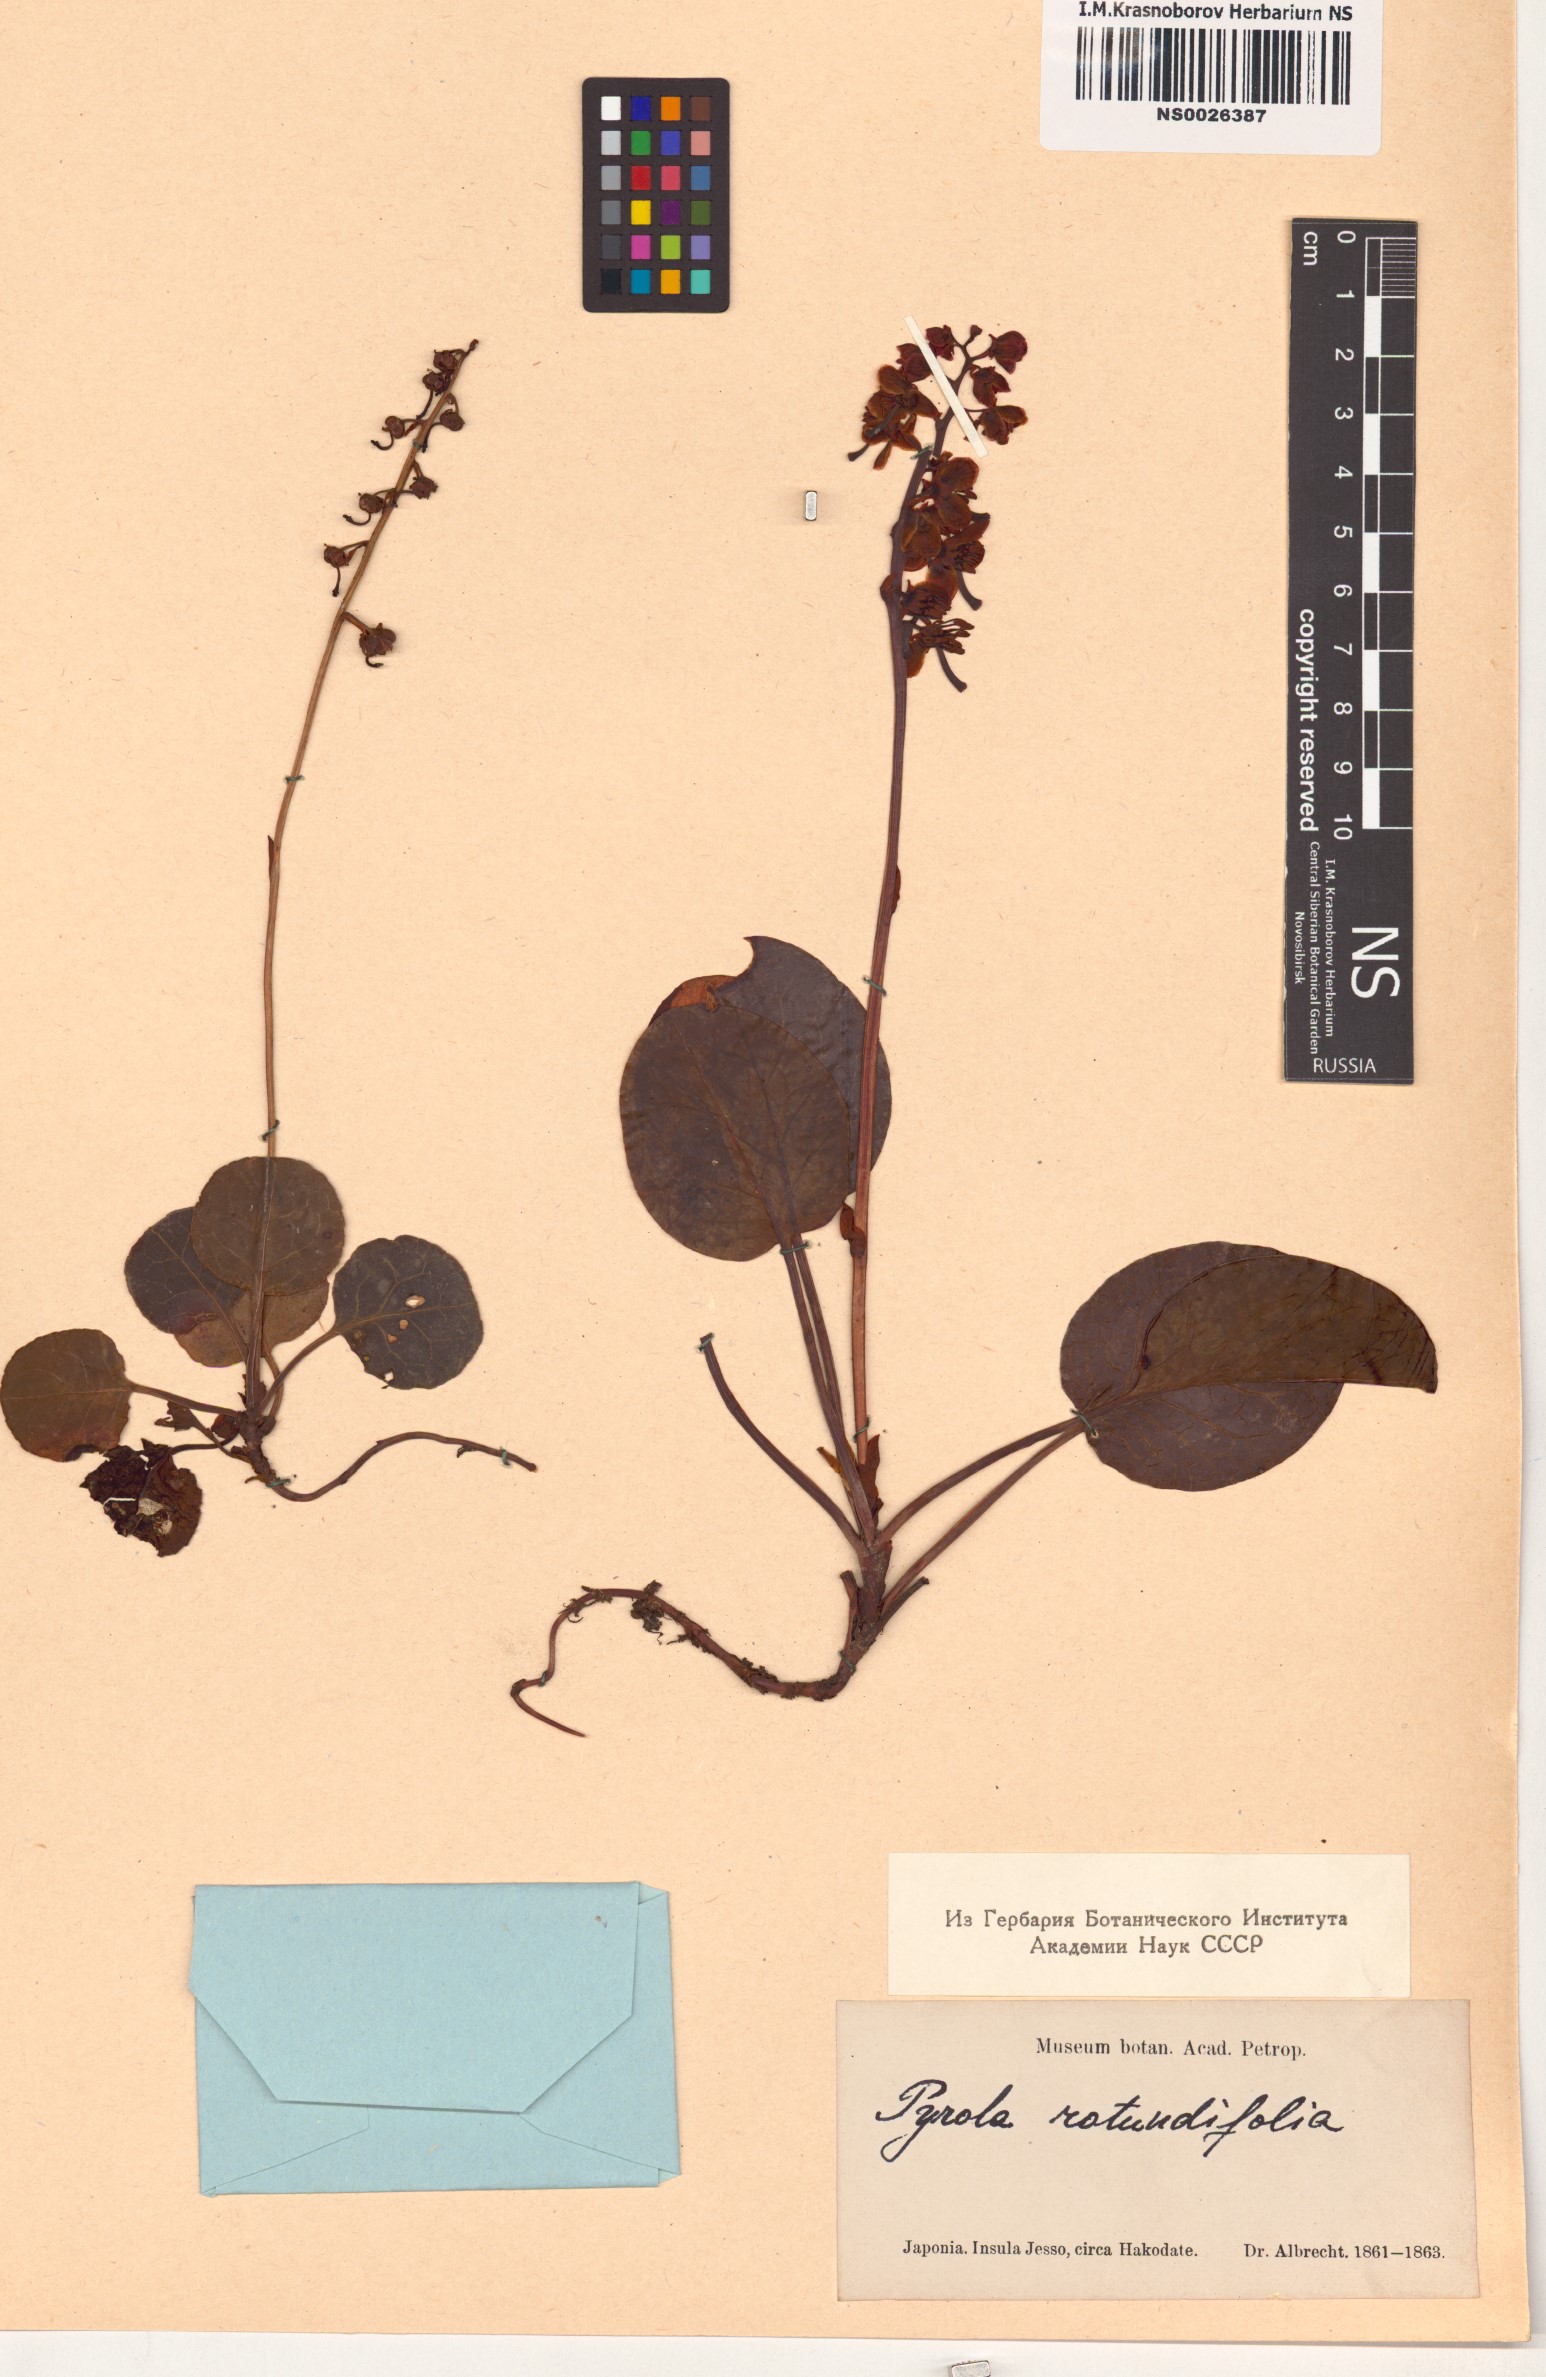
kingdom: Plantae
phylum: Tracheophyta
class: Magnoliopsida
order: Ericales
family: Ericaceae
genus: Pyrola
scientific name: Pyrola rotundifolia
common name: Round-leaved wintergreen
